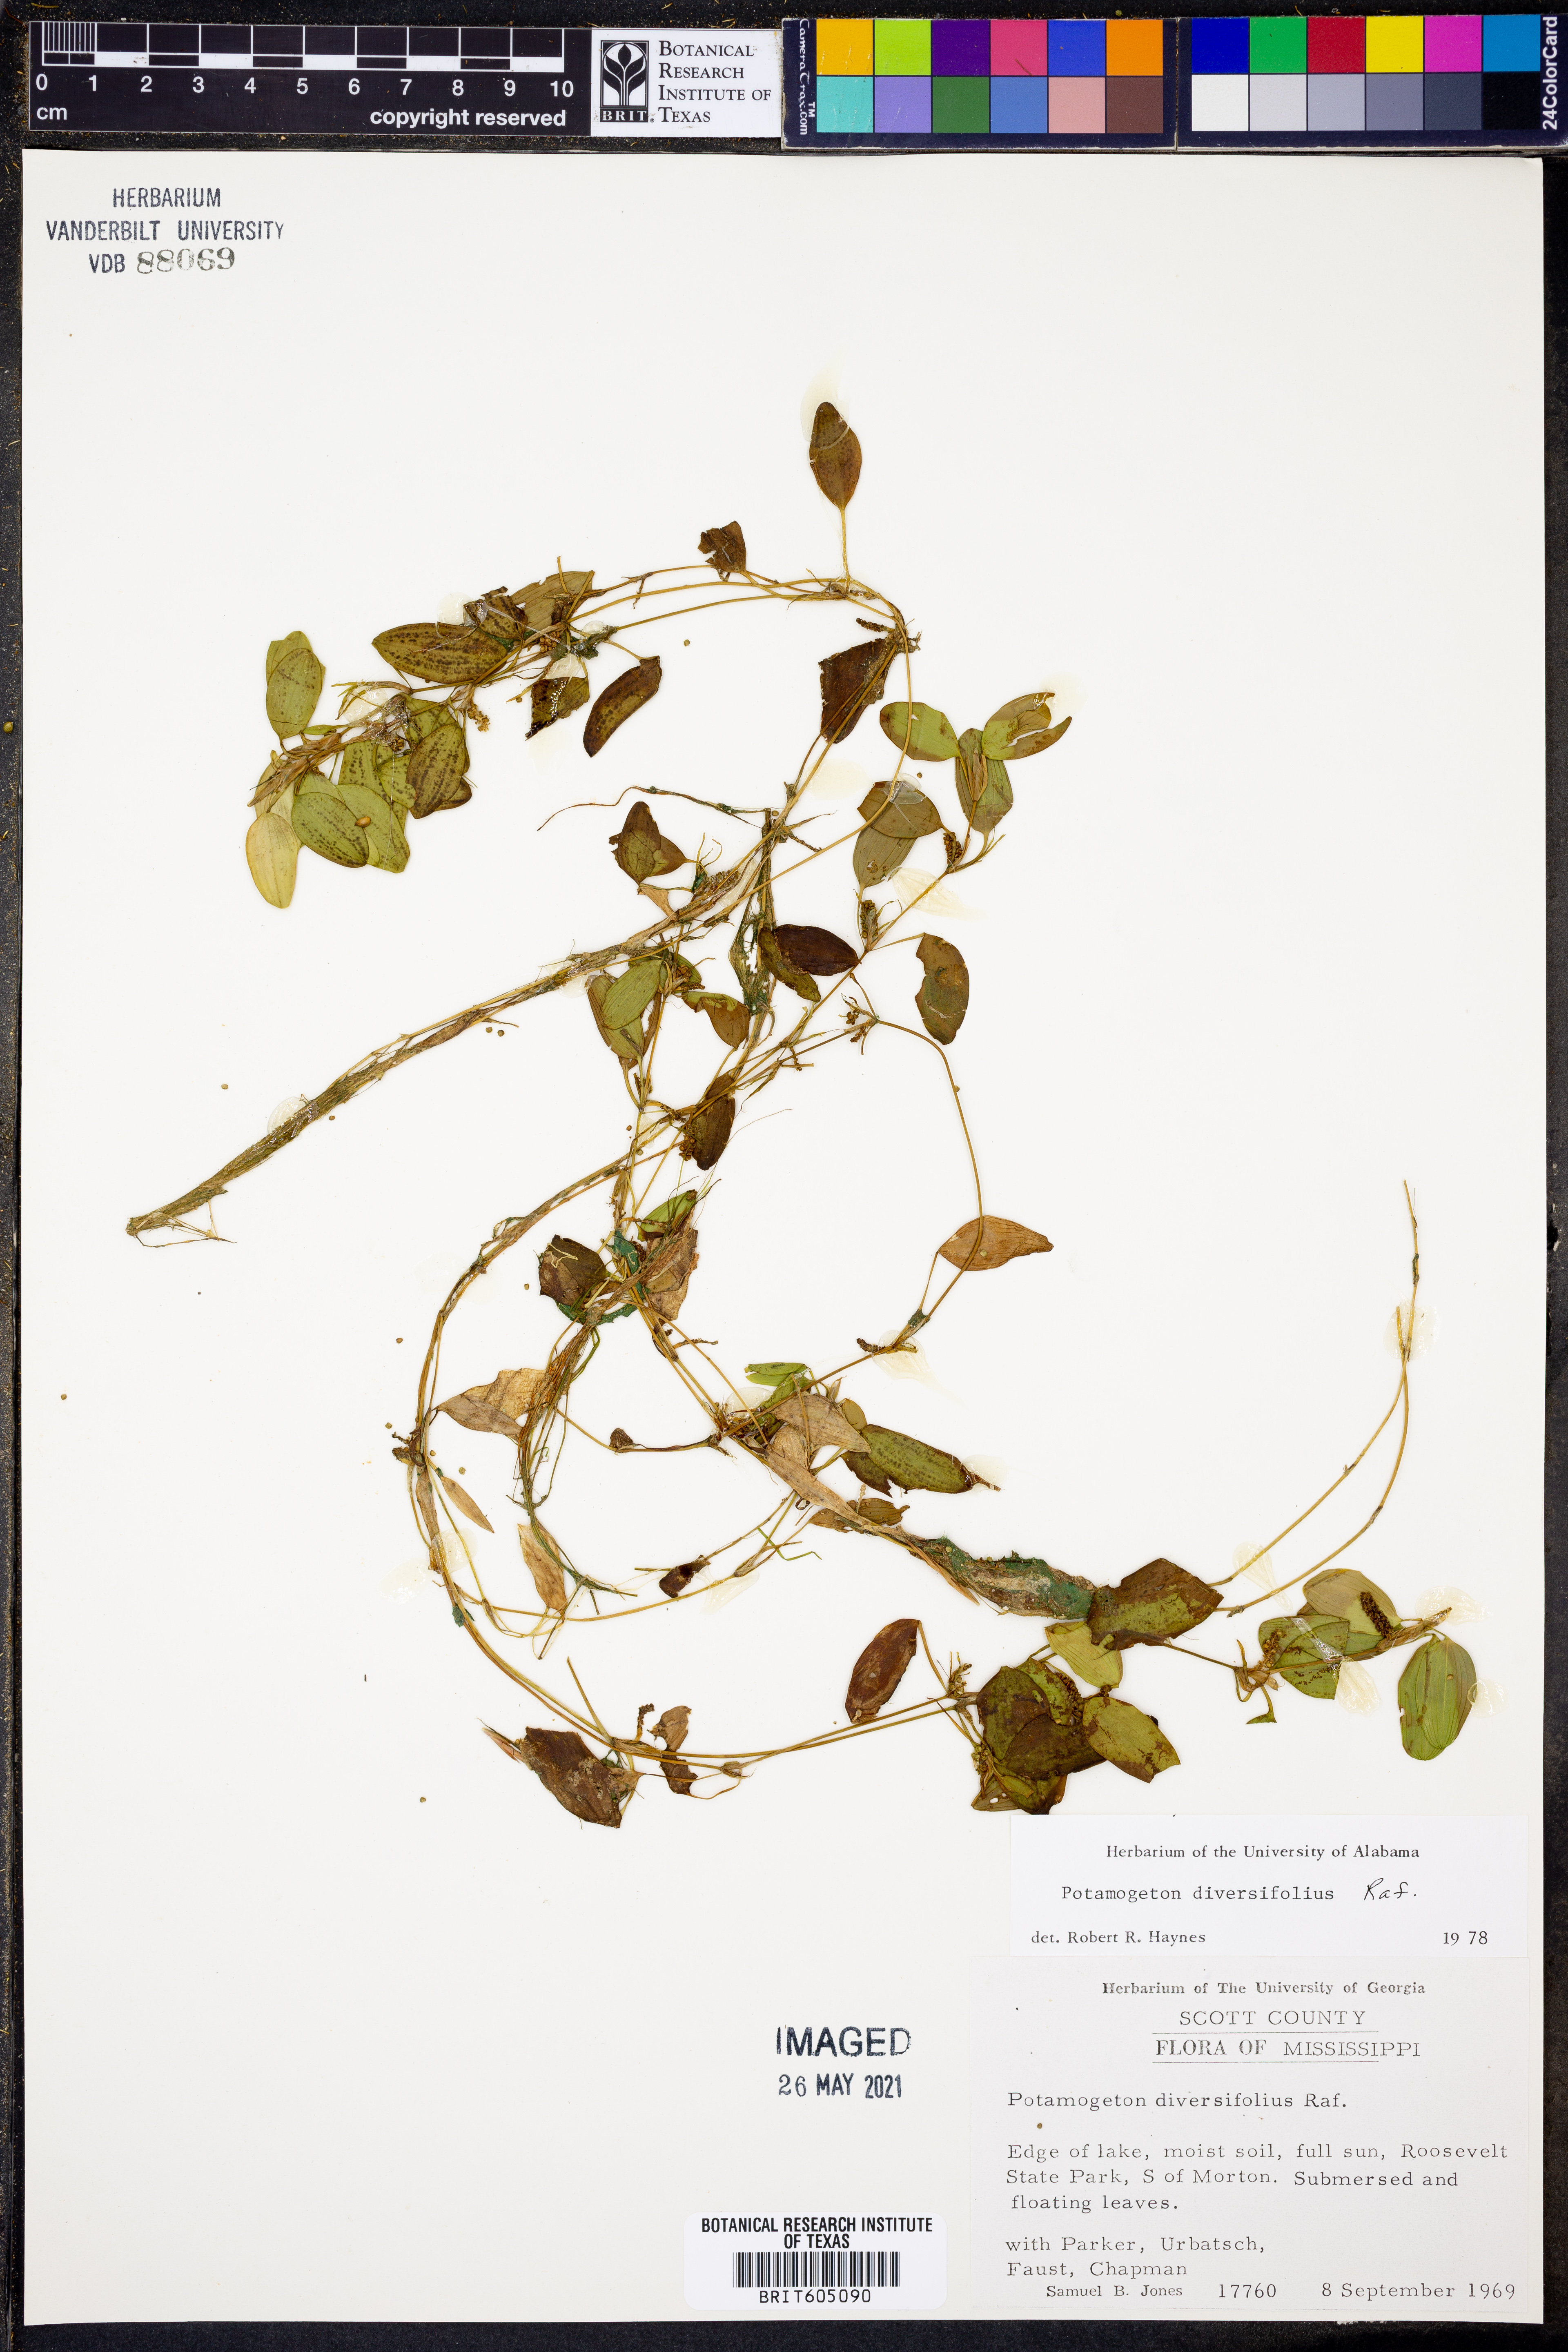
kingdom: Plantae
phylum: Tracheophyta
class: Liliopsida
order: Alismatales
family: Potamogetonaceae
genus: Potamogeton
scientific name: Potamogeton diversifolius
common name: Water-thread pondweed
